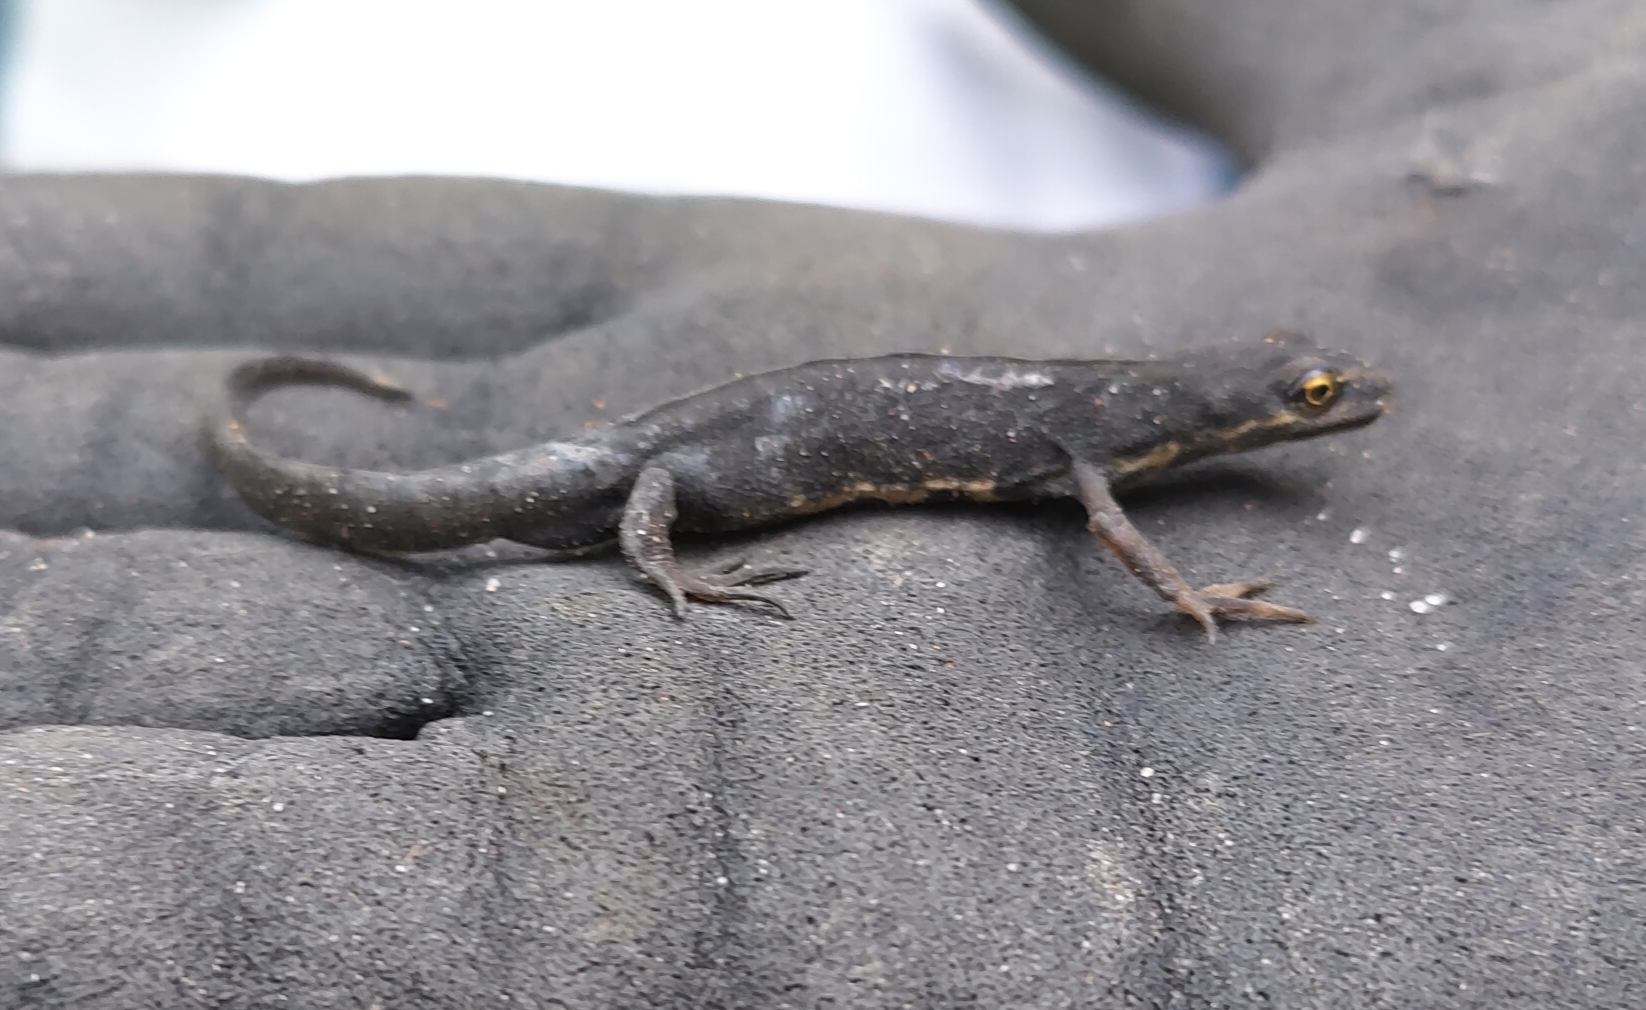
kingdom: Animalia
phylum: Chordata
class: Amphibia
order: Caudata
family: Salamandridae
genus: Lissotriton
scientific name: Lissotriton vulgaris
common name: Lille vandsalamander
